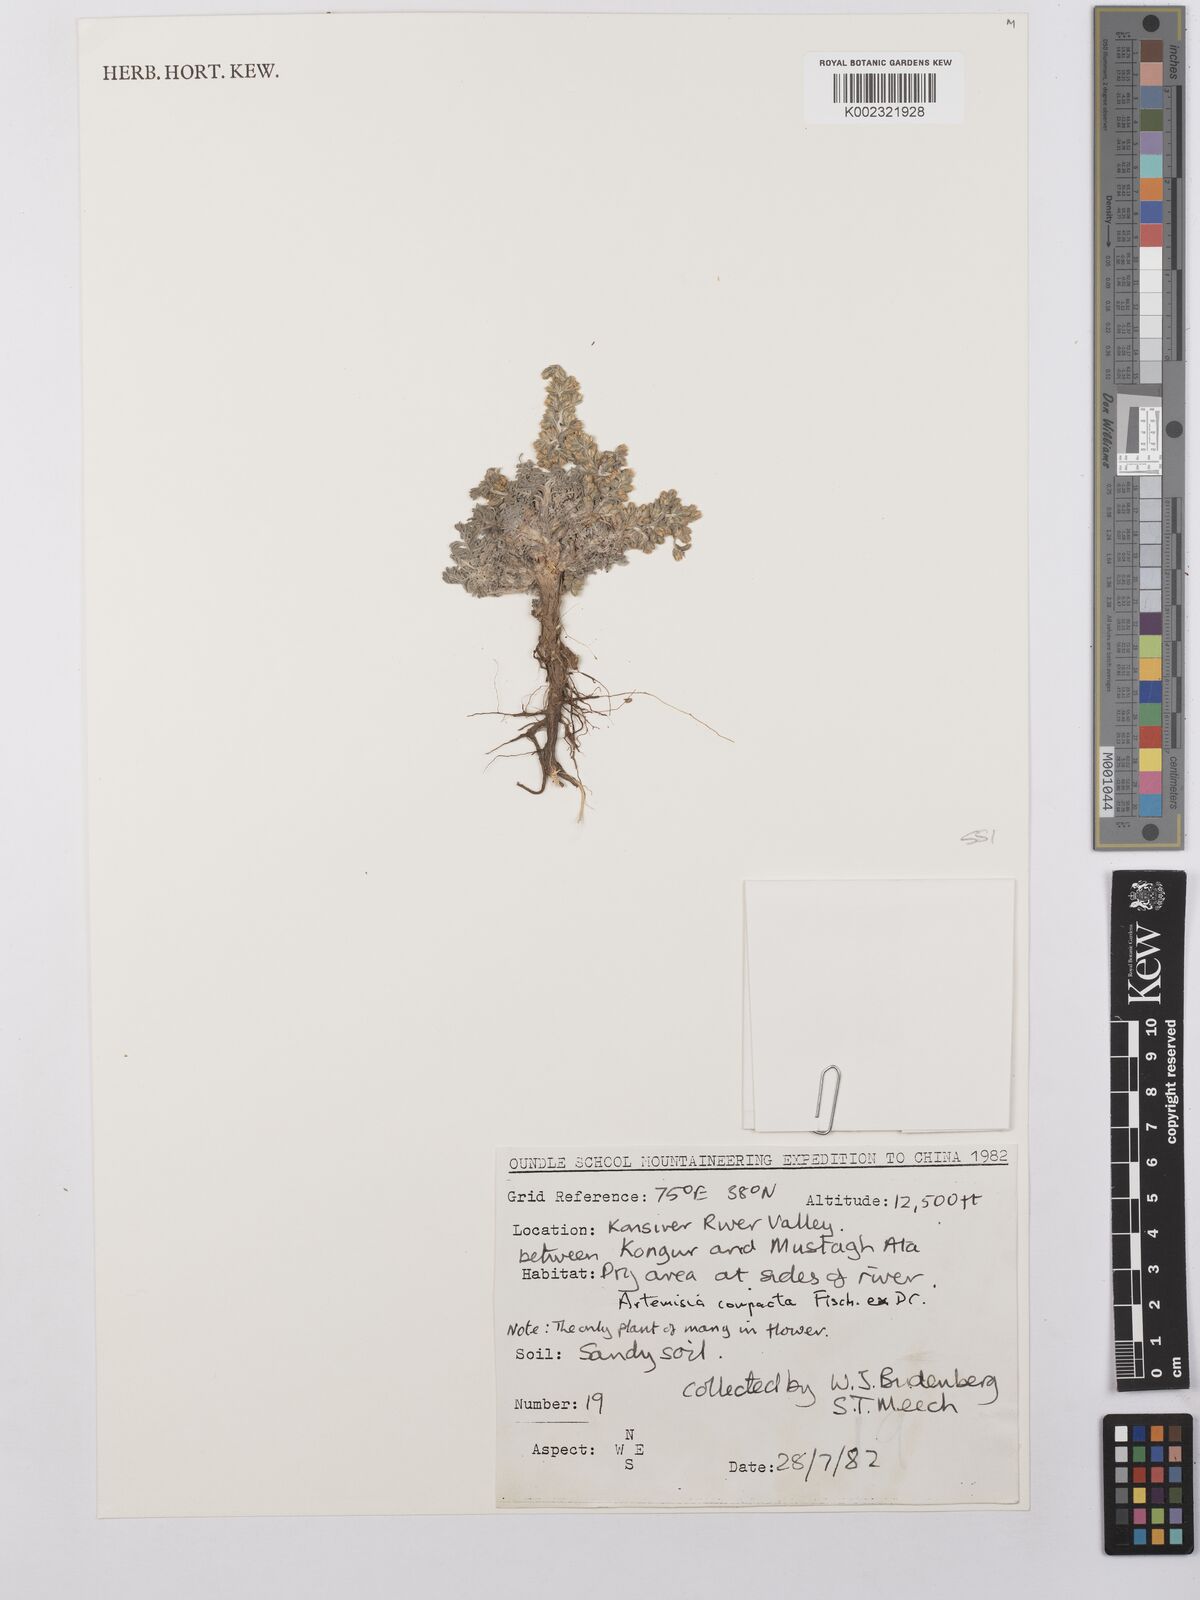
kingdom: Plantae
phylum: Tracheophyta
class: Magnoliopsida
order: Asterales
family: Asteraceae
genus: Artemisia
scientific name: Artemisia compacta
